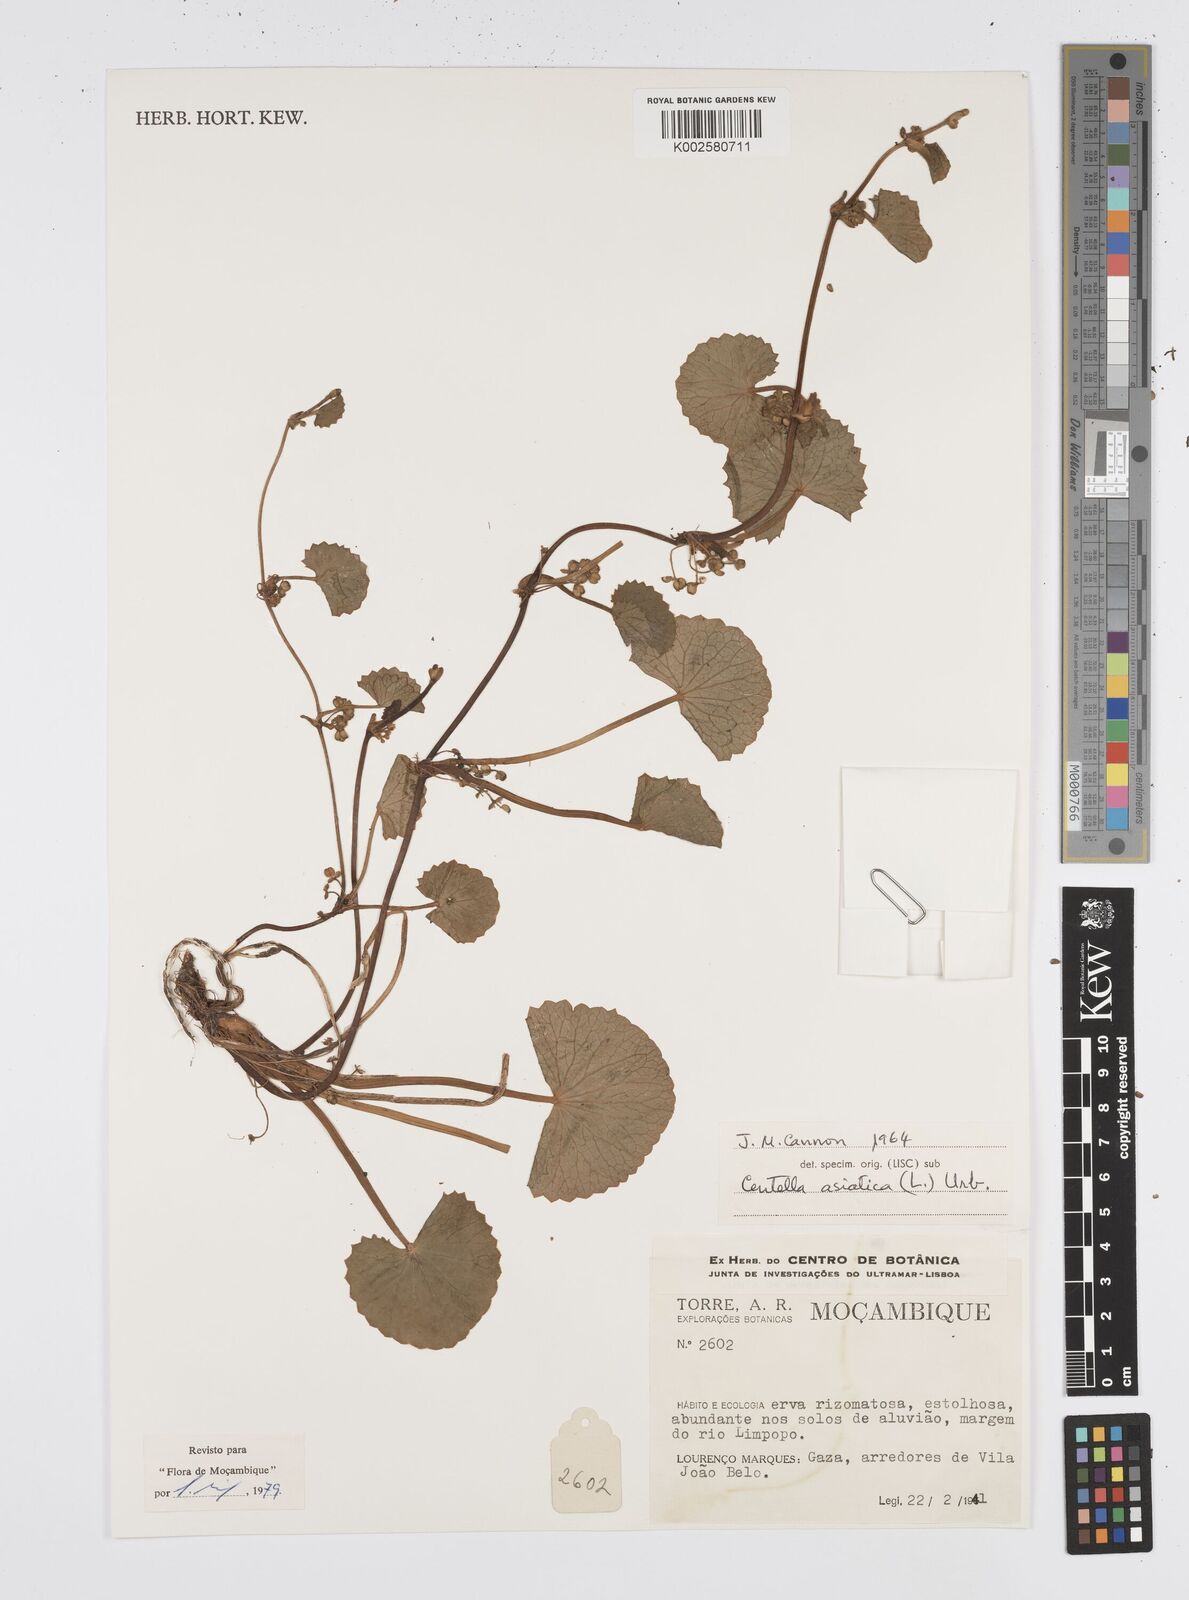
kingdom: Plantae
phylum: Tracheophyta
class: Magnoliopsida
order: Apiales
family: Apiaceae
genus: Centella
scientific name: Centella asiatica
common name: Spadeleaf
